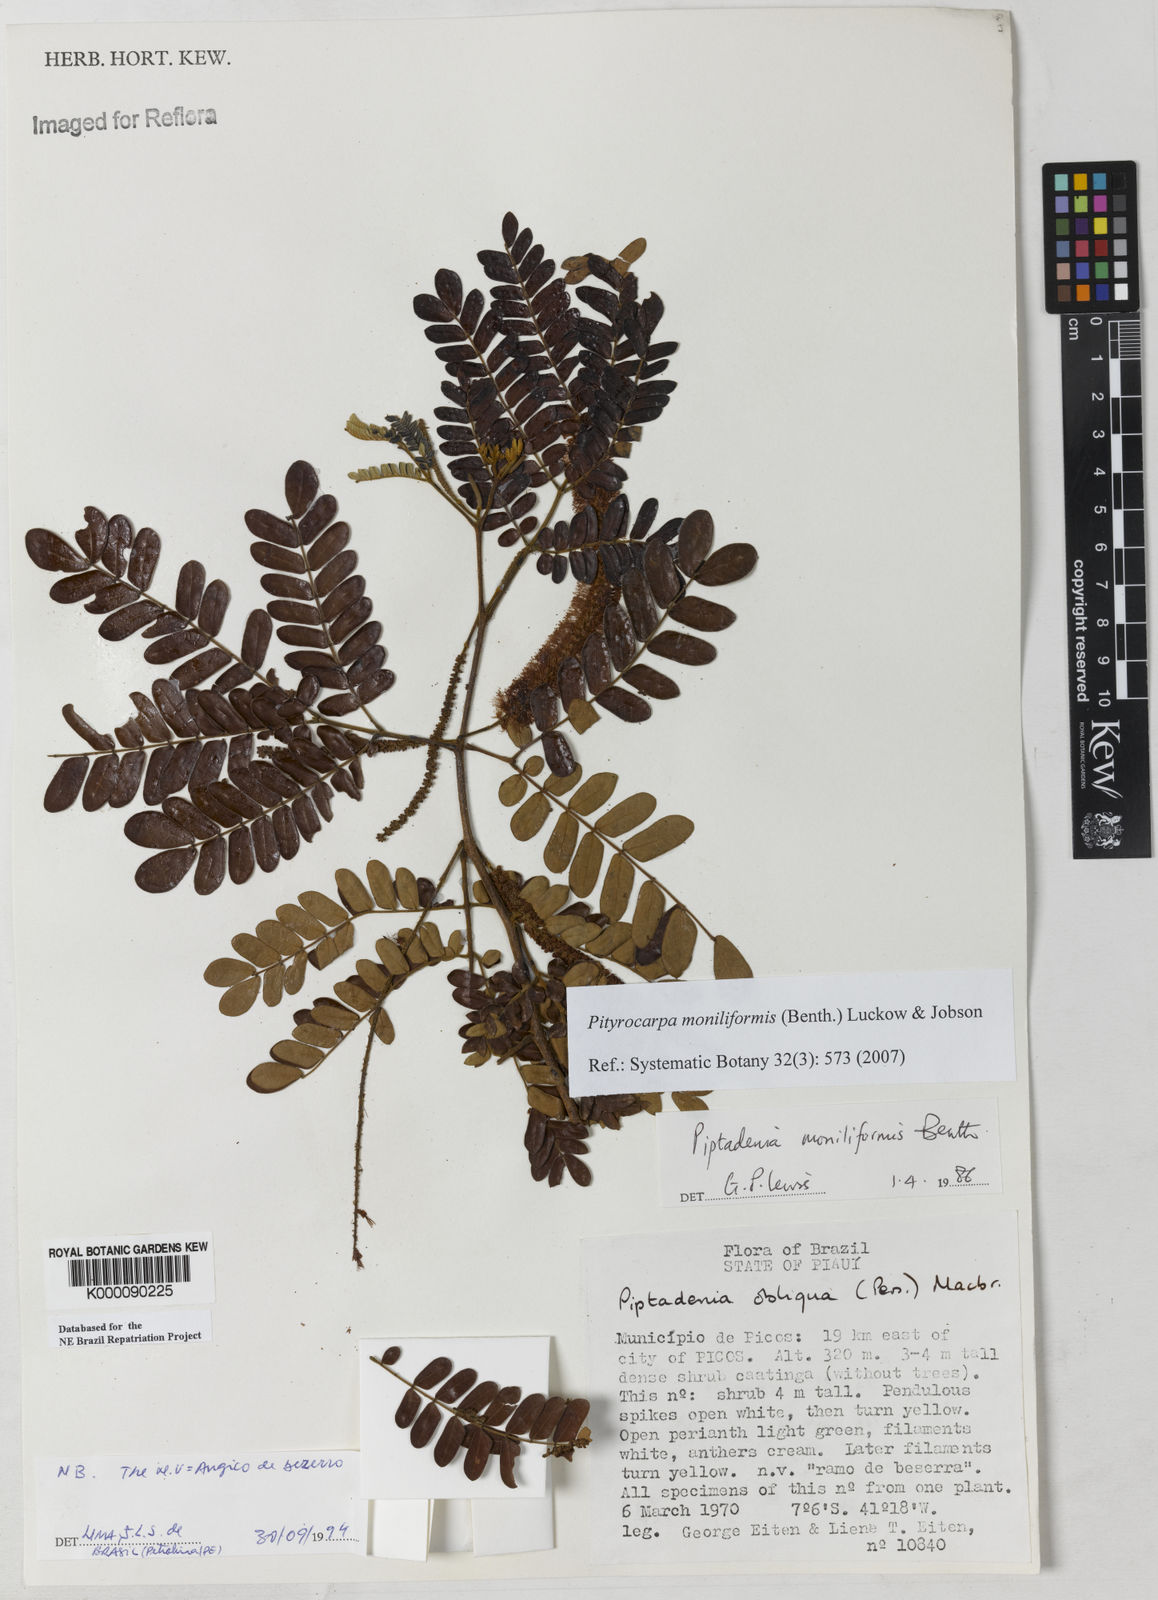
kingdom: Plantae
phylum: Tracheophyta
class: Magnoliopsida
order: Fabales
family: Fabaceae
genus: Pityrocarpa
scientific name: Pityrocarpa moniliformis
